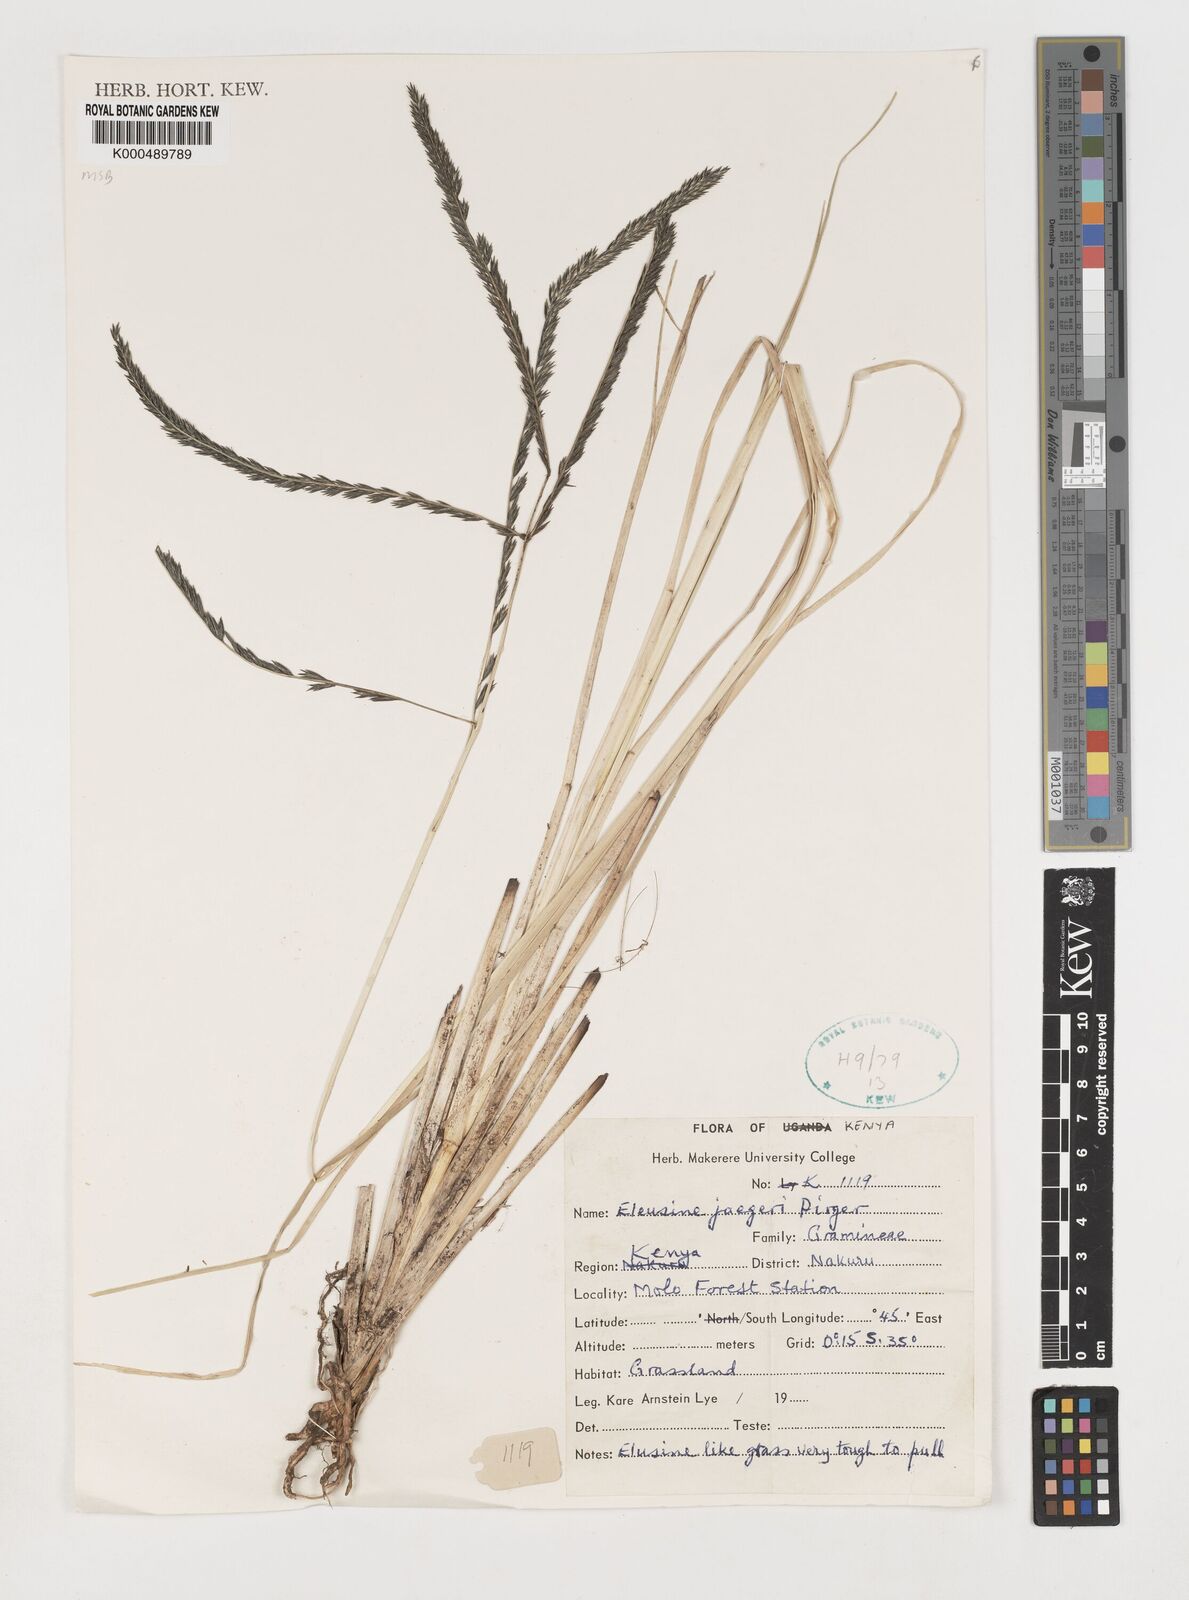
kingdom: Plantae
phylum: Tracheophyta
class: Liliopsida
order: Poales
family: Poaceae
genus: Eleusine
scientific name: Eleusine jaegeri
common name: Manyatta grass
